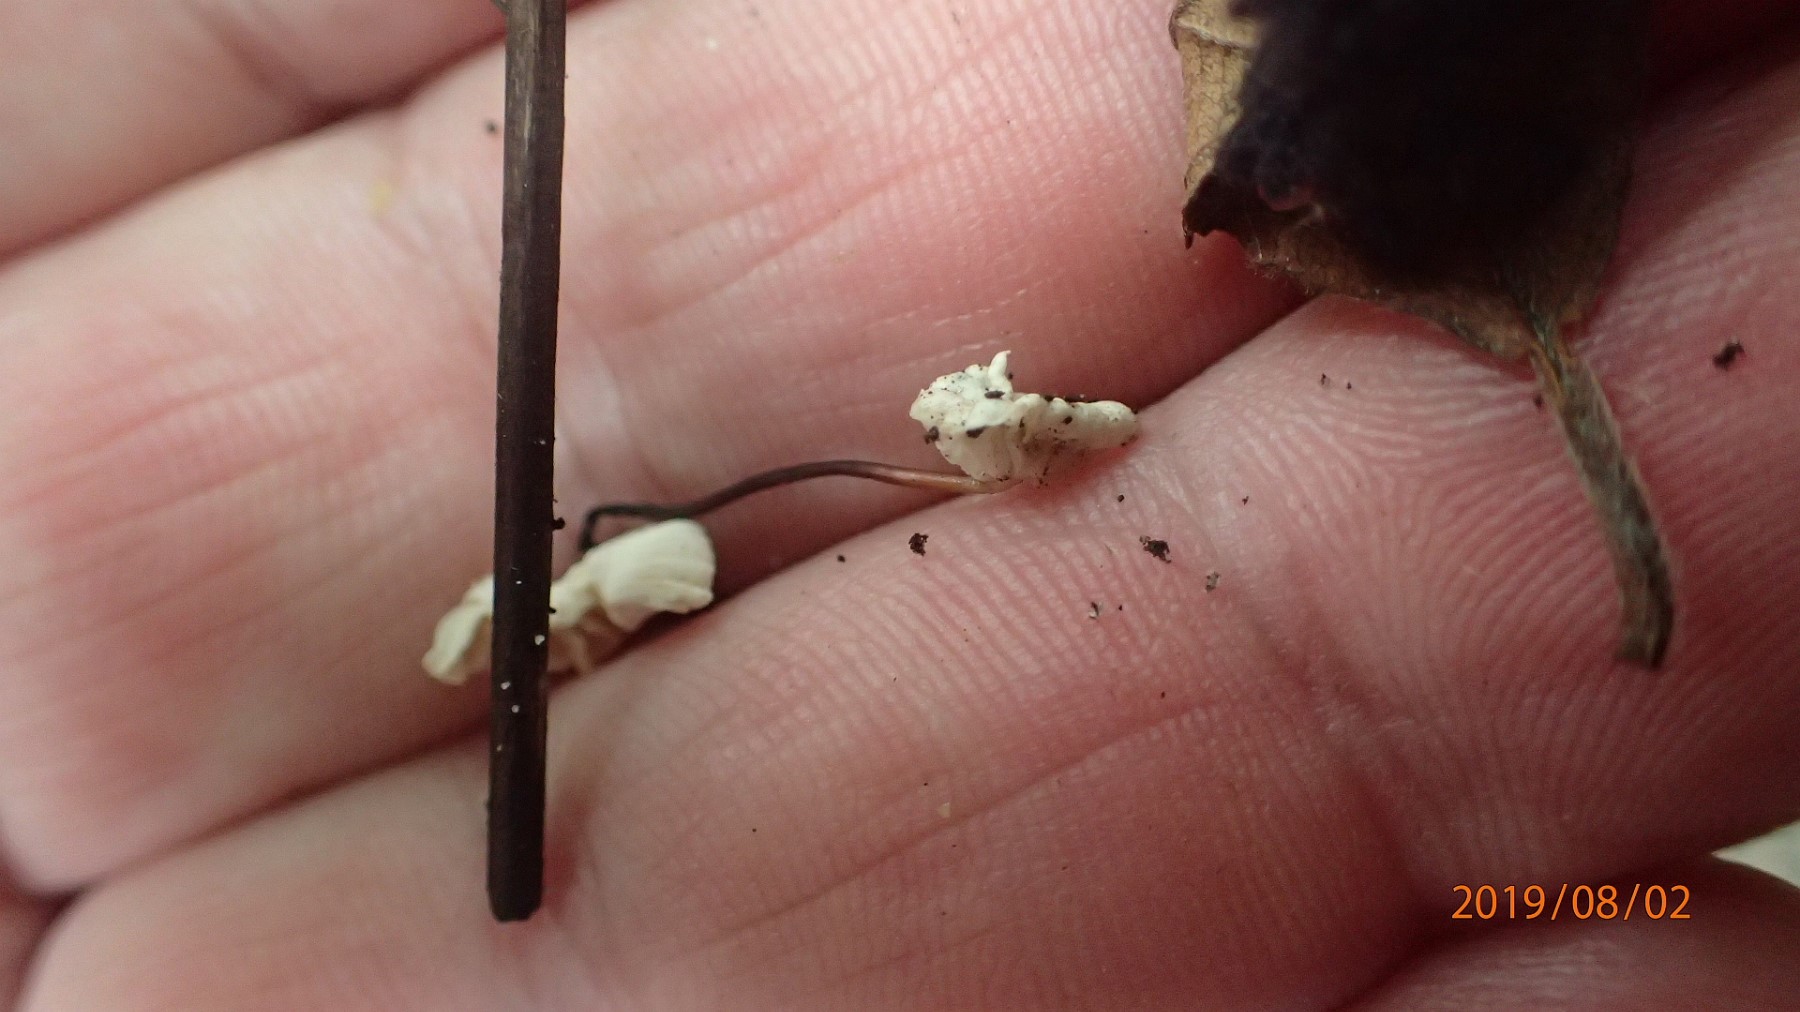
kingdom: Fungi
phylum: Basidiomycota
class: Agaricomycetes
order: Agaricales
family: Marasmiaceae
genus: Marasmius
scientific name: Marasmius rotula
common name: hjul-bruskhat
